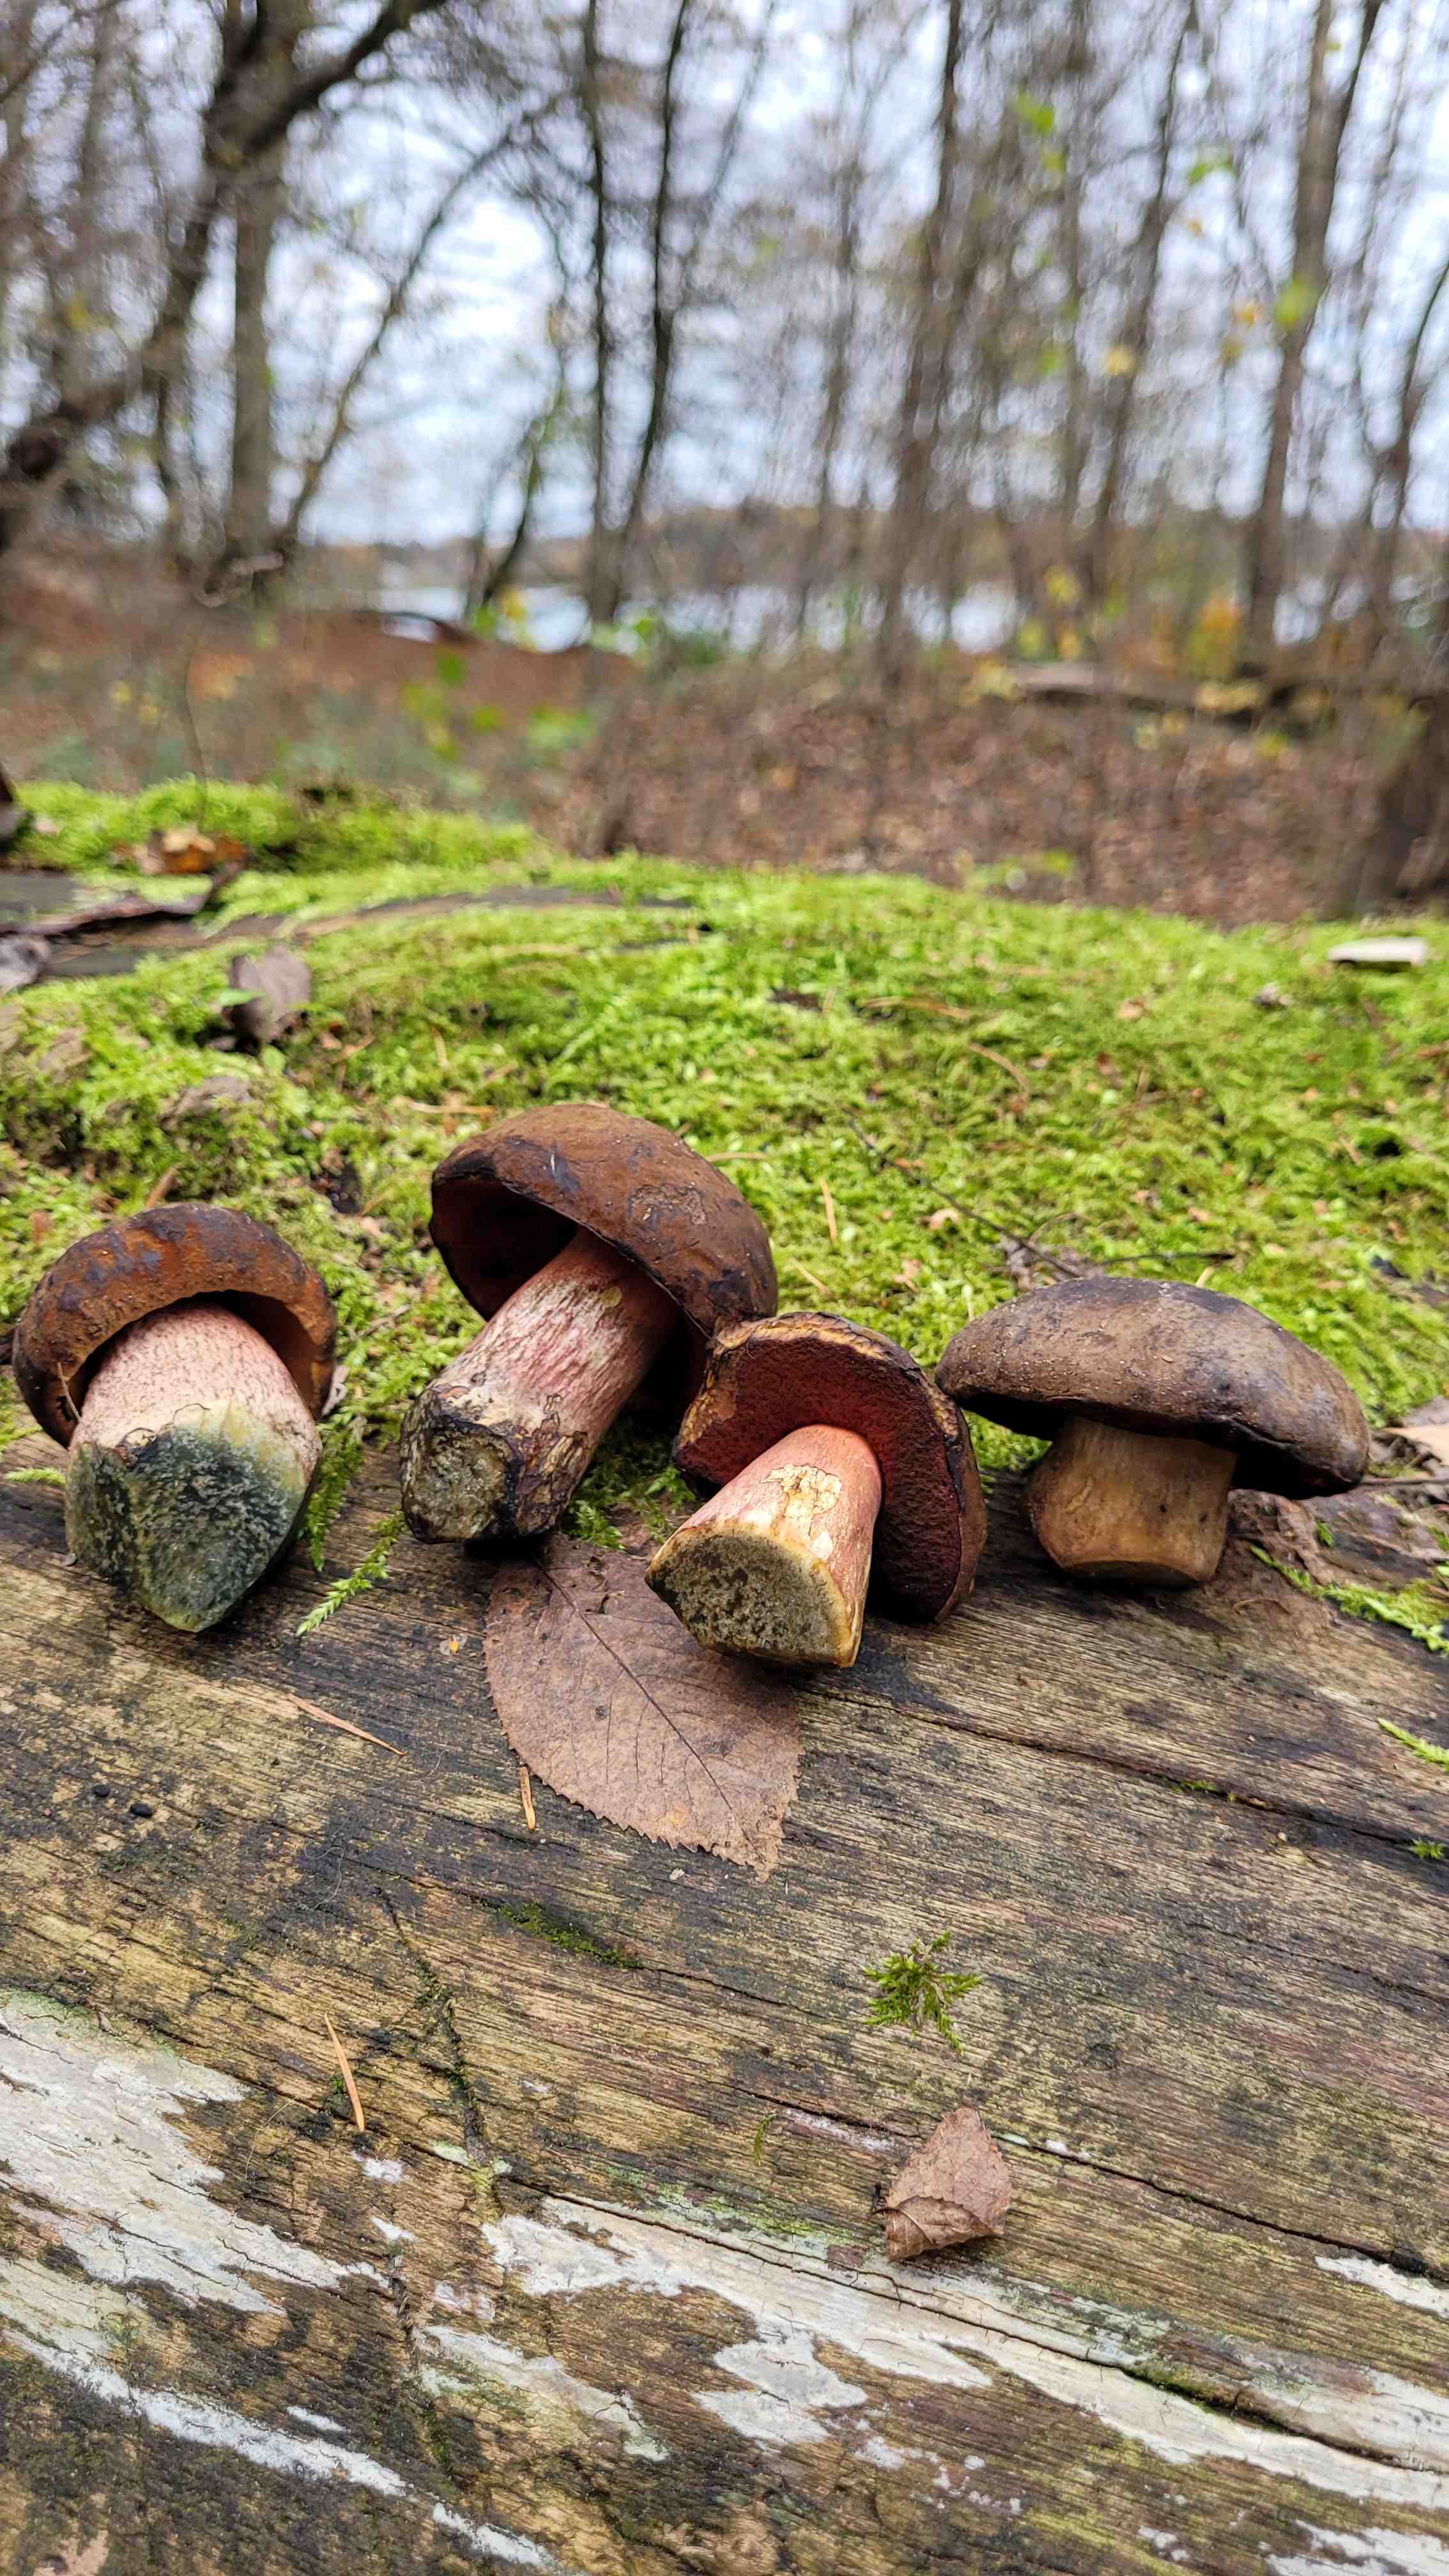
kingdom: Fungi
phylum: Basidiomycota
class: Agaricomycetes
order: Boletales
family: Boletaceae
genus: Neoboletus
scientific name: Neoboletus erythropus
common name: punktstokket indigorørhat
